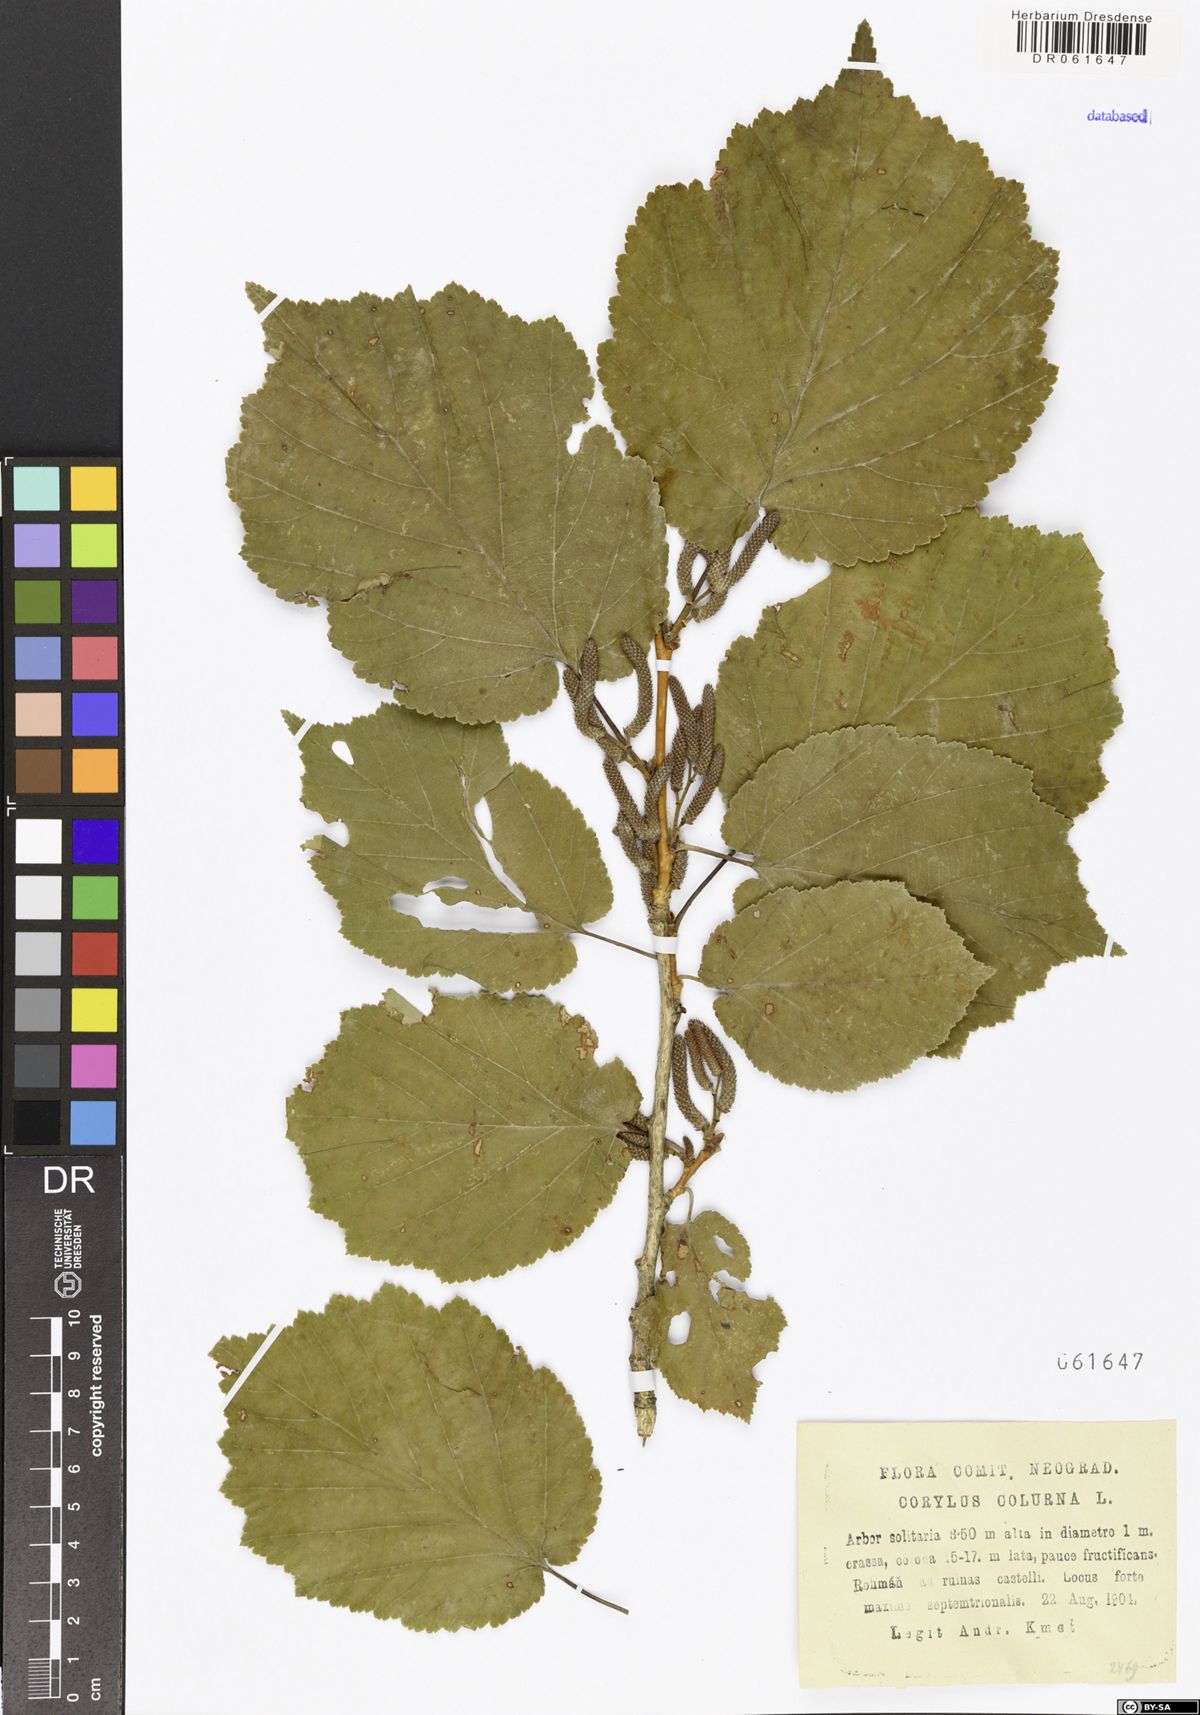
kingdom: Plantae
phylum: Tracheophyta
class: Magnoliopsida
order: Fagales
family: Betulaceae
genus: Corylus
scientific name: Corylus colurna
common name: Turkish hazel
